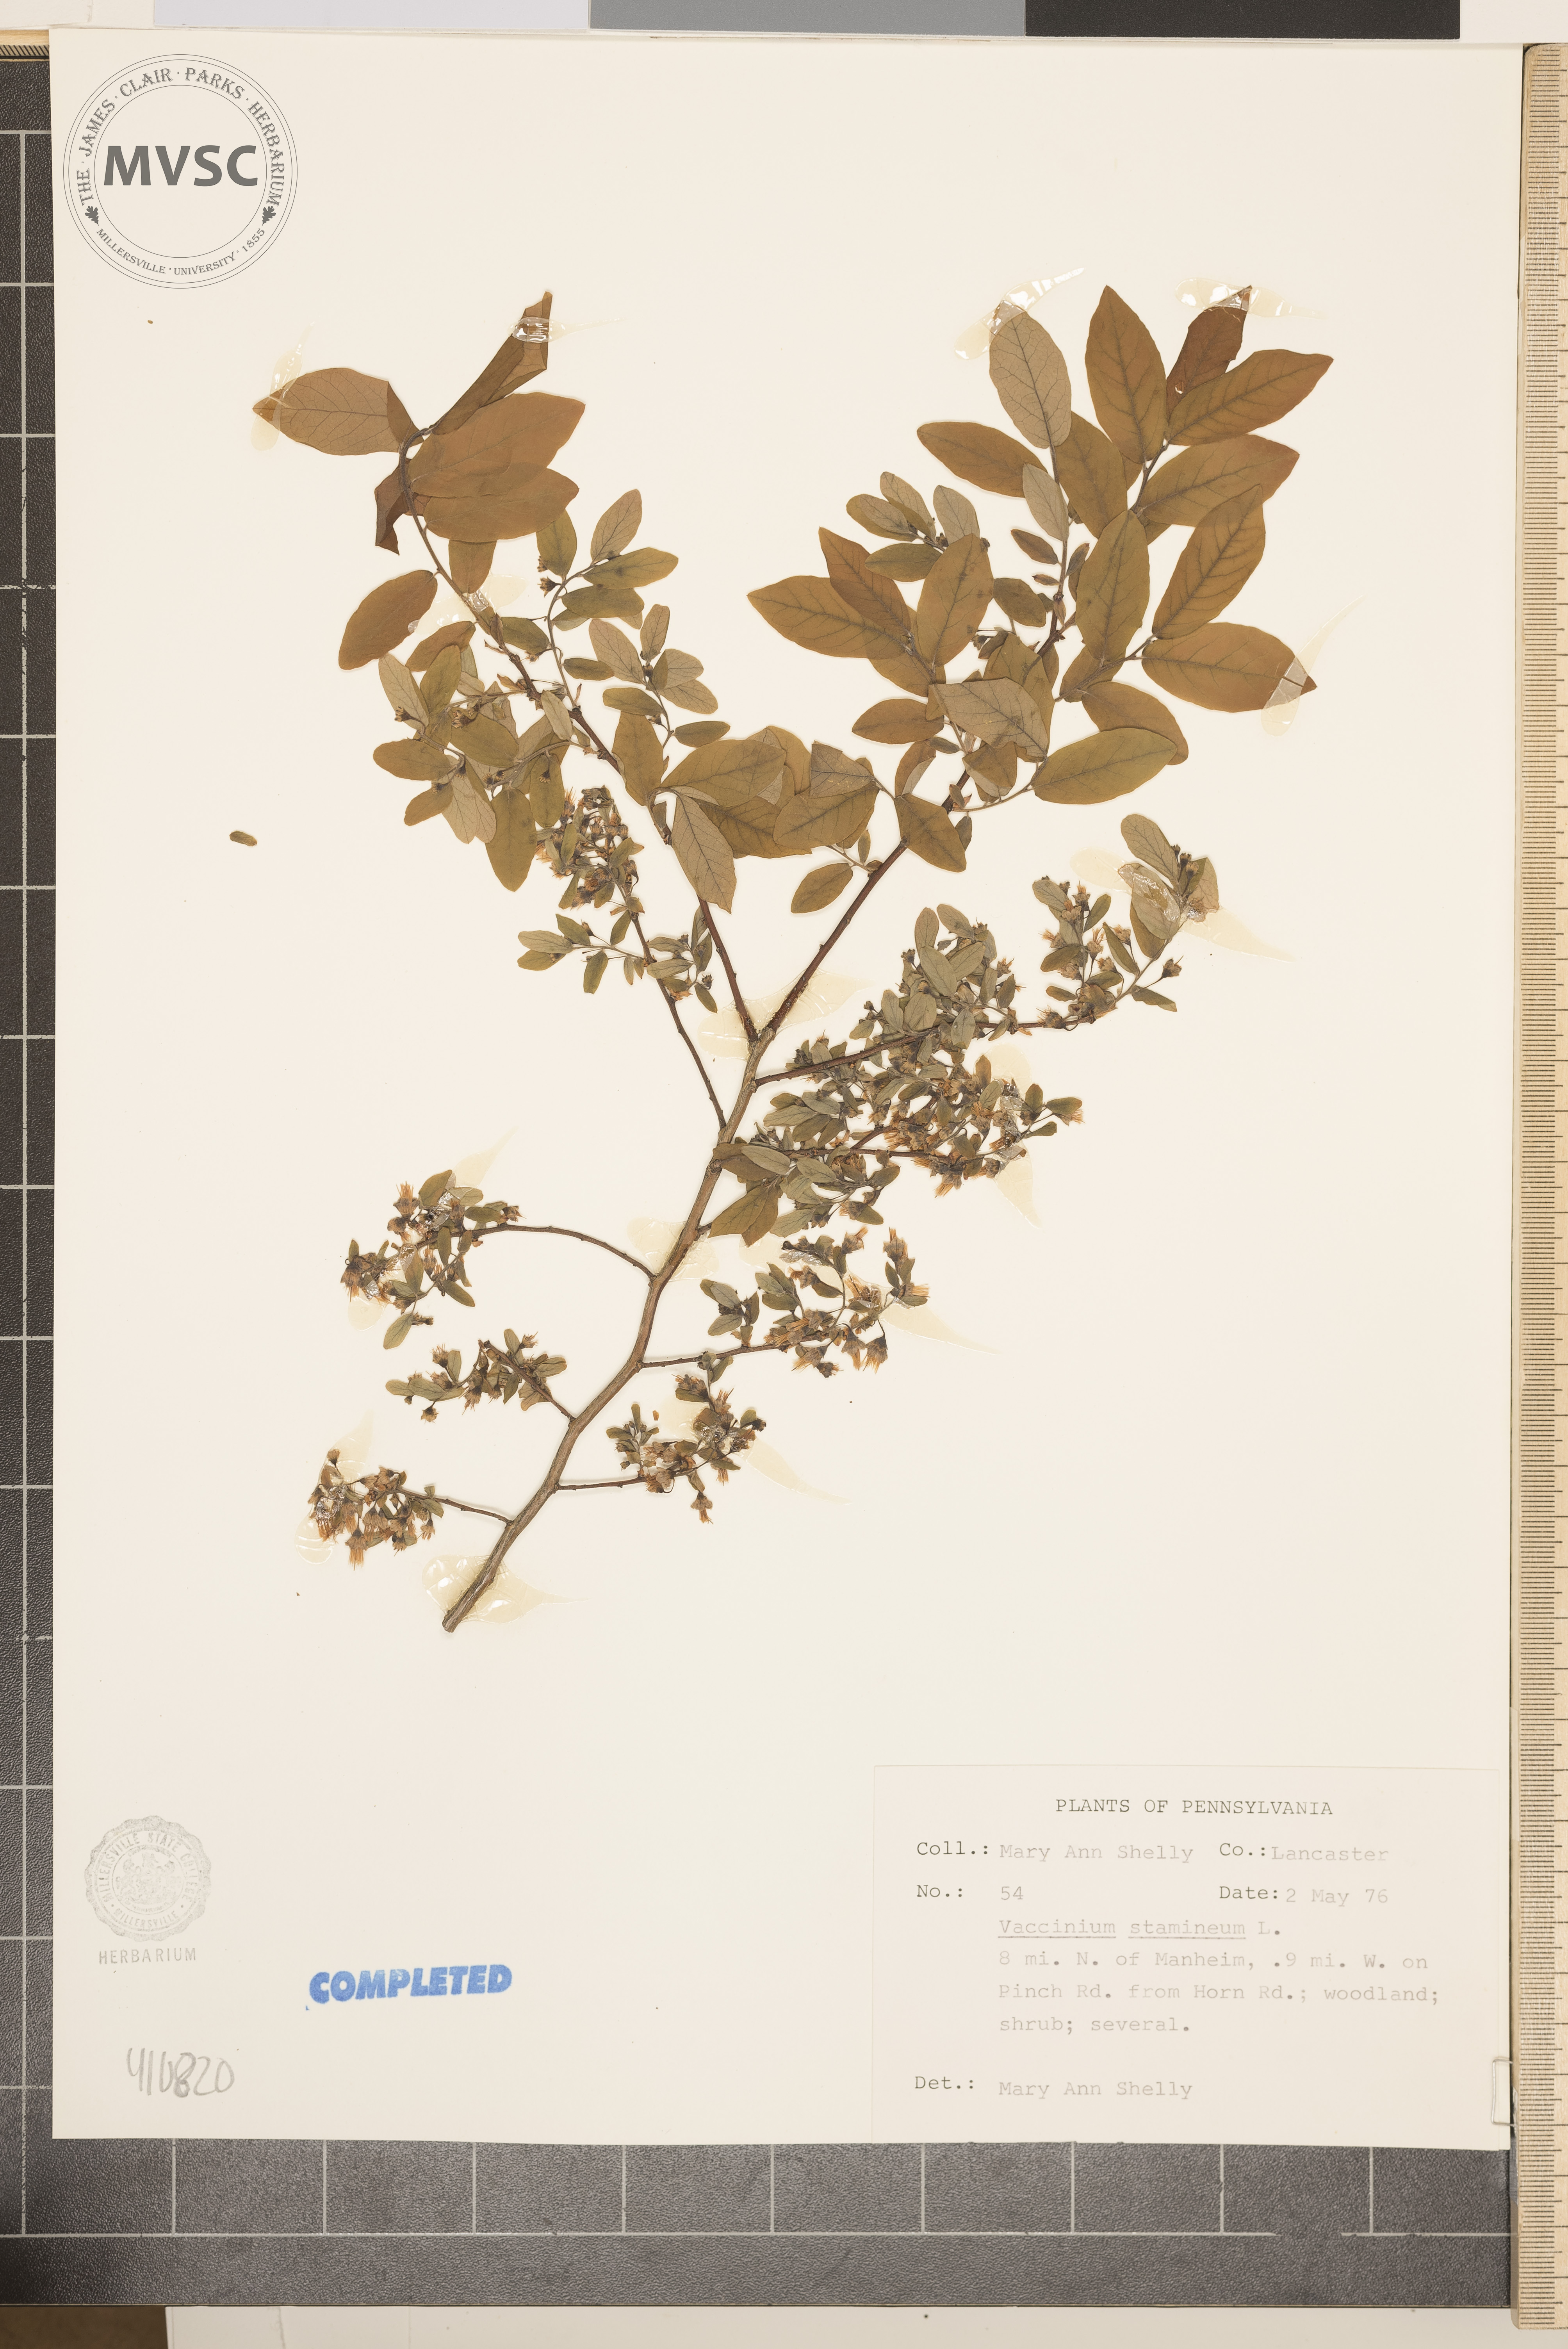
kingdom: Plantae
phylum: Tracheophyta
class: Magnoliopsida
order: Ericales
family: Ericaceae
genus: Vaccinium
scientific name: Vaccinium stamineum
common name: Deerberry
